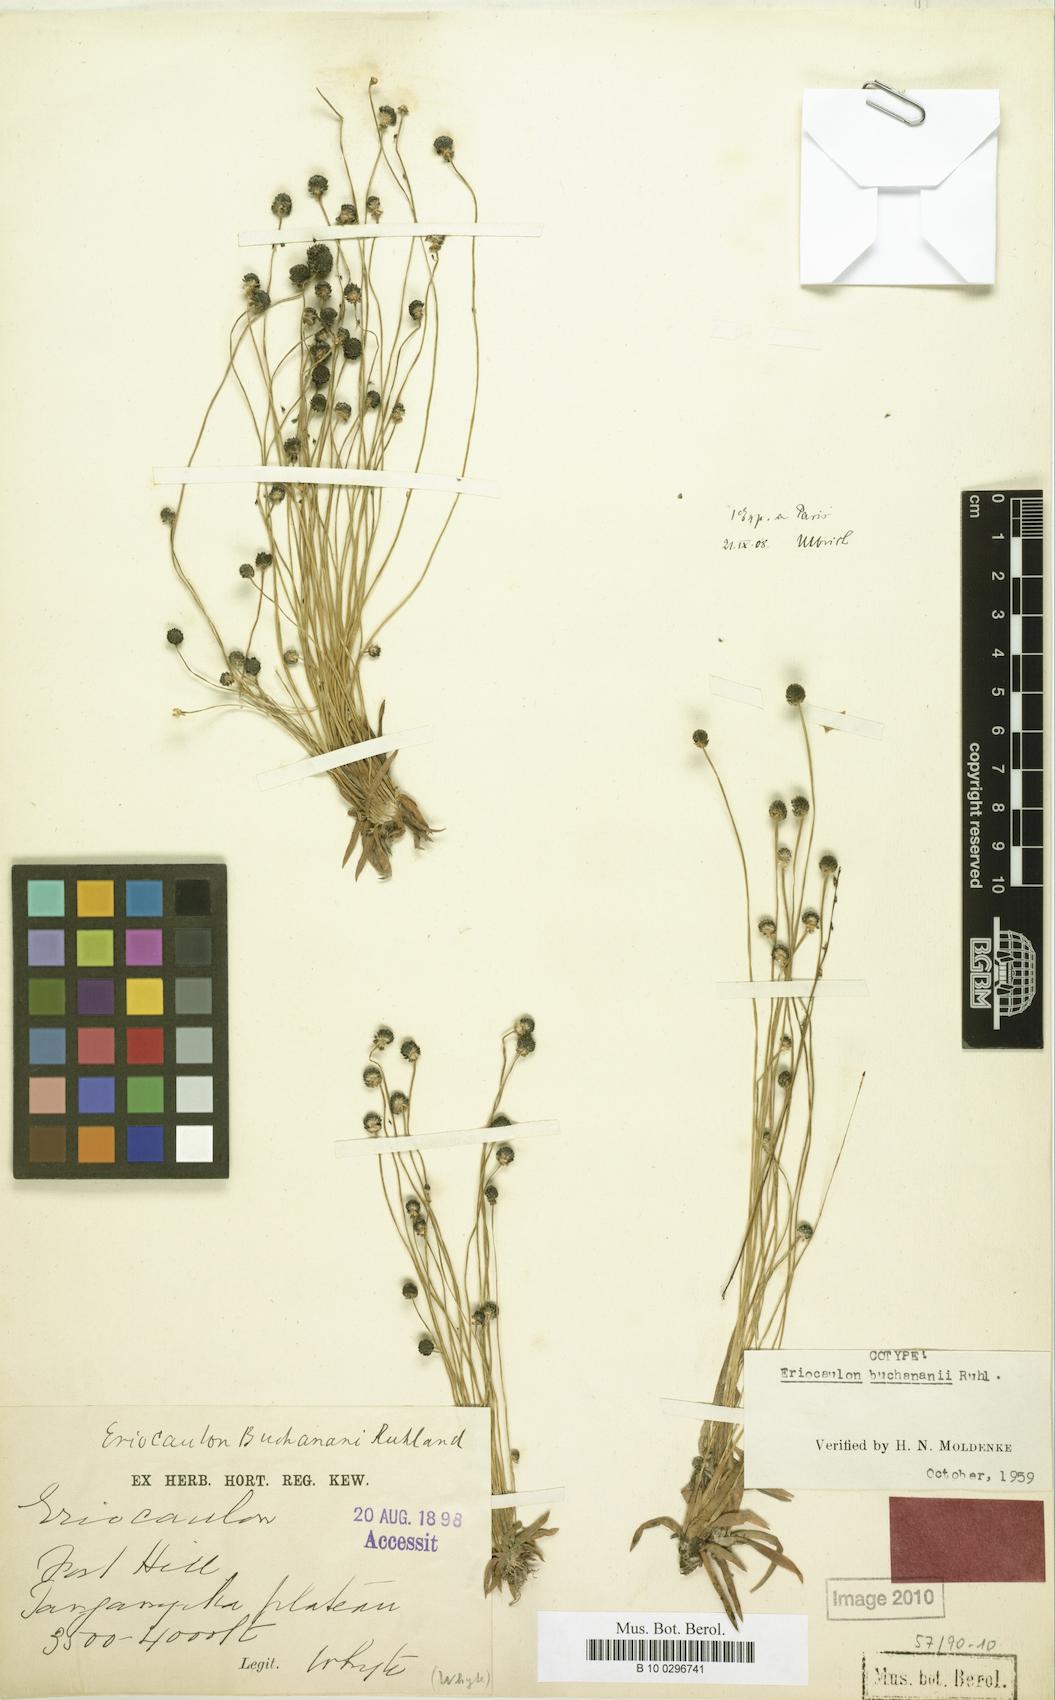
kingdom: Plantae
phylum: Tracheophyta
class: Liliopsida
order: Poales
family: Eriocaulaceae
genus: Eriocaulon
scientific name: Eriocaulon buchananii
